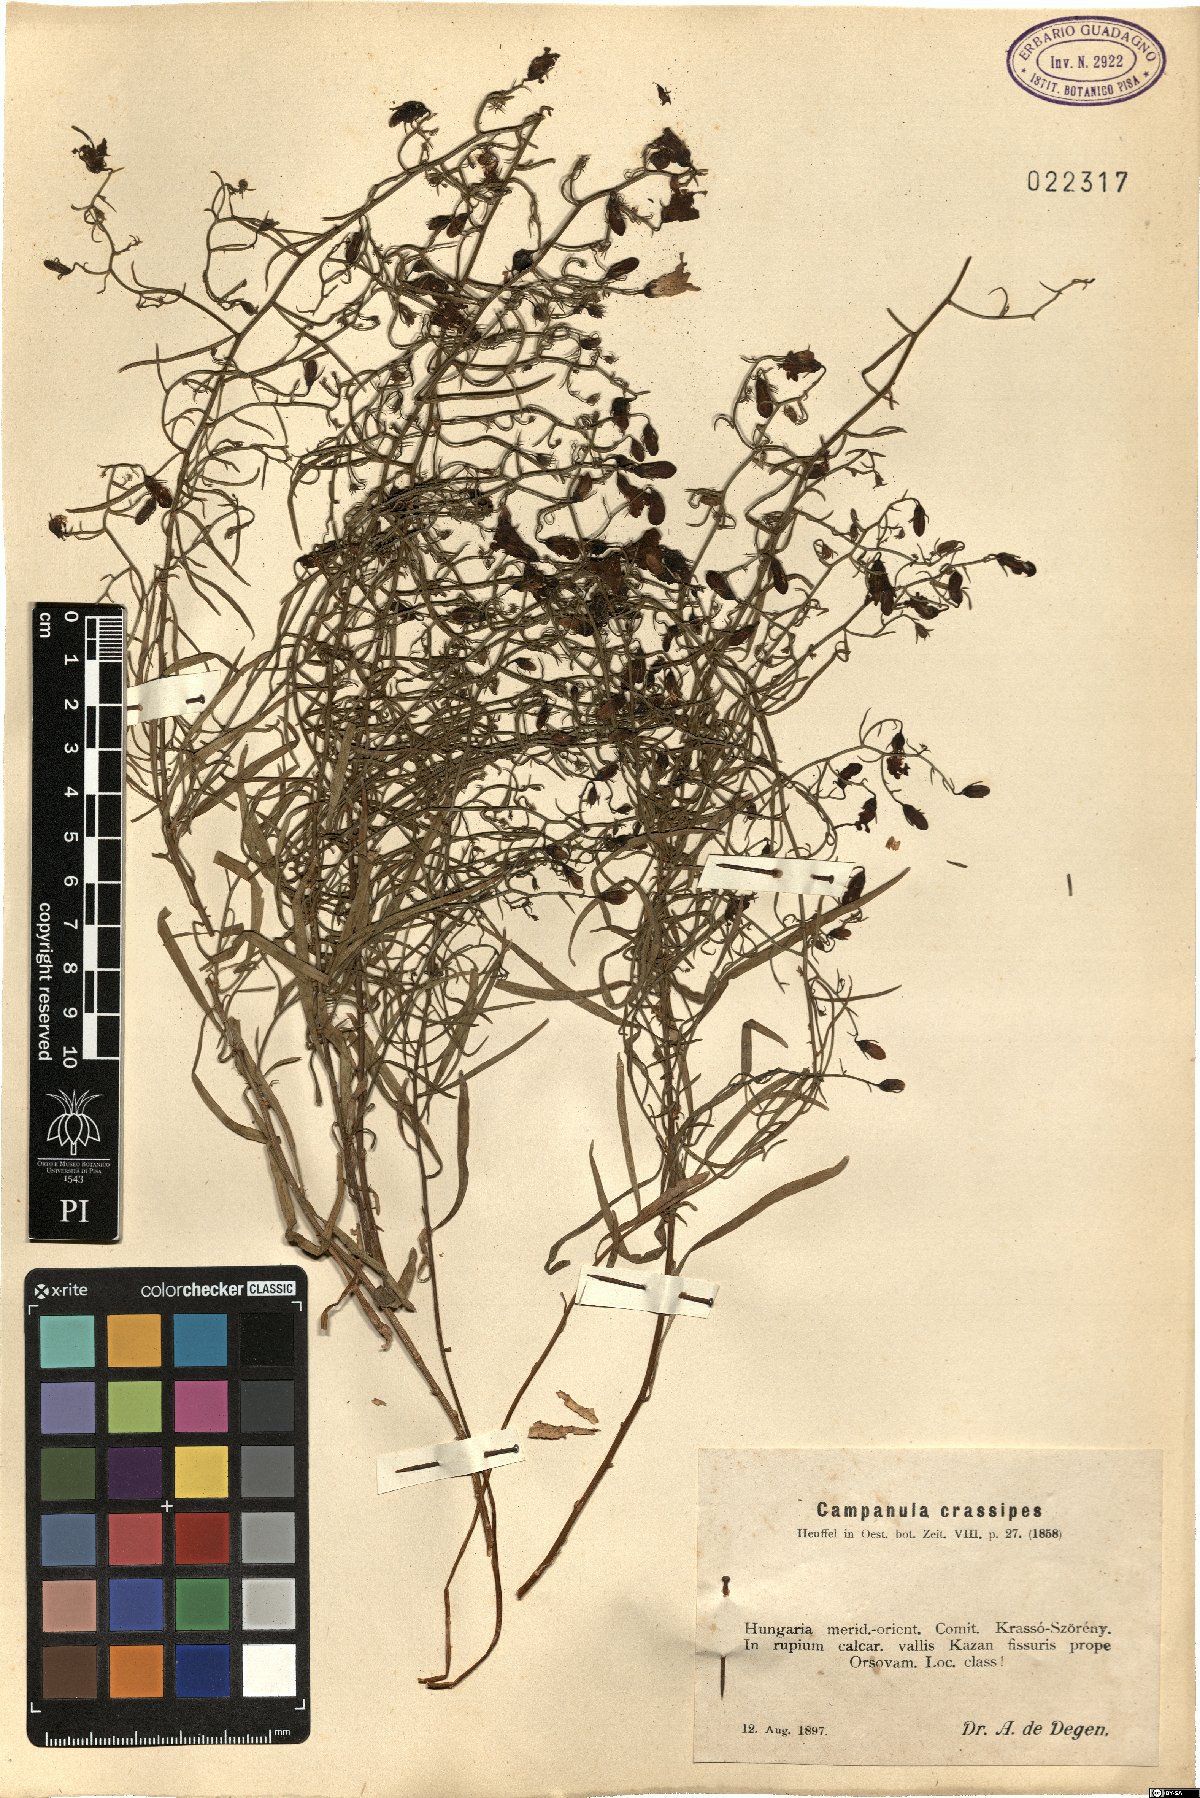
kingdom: Plantae
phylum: Tracheophyta
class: Magnoliopsida
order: Asterales
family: Campanulaceae
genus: Campanula
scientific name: Campanula crassipes
